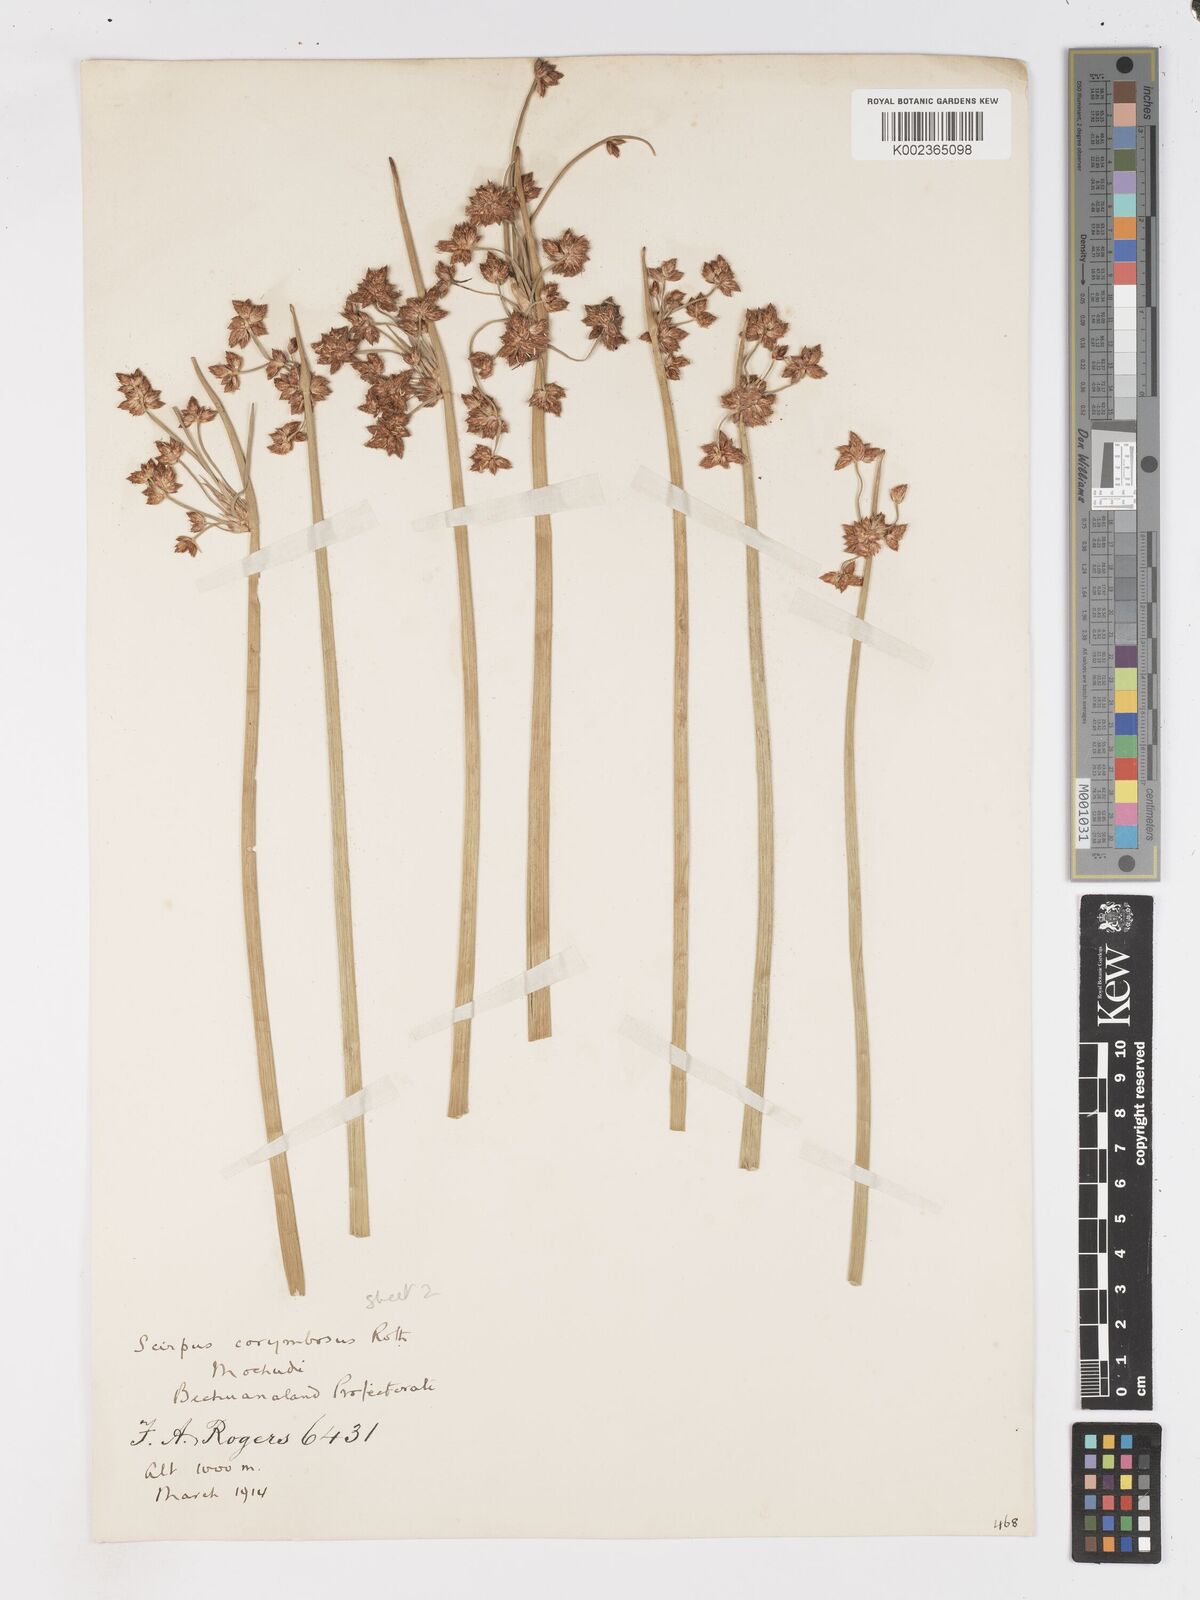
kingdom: Plantae
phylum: Tracheophyta
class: Liliopsida
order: Poales
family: Cyperaceae
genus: Schoenoplectiella
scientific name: Schoenoplectiella corymbosa
